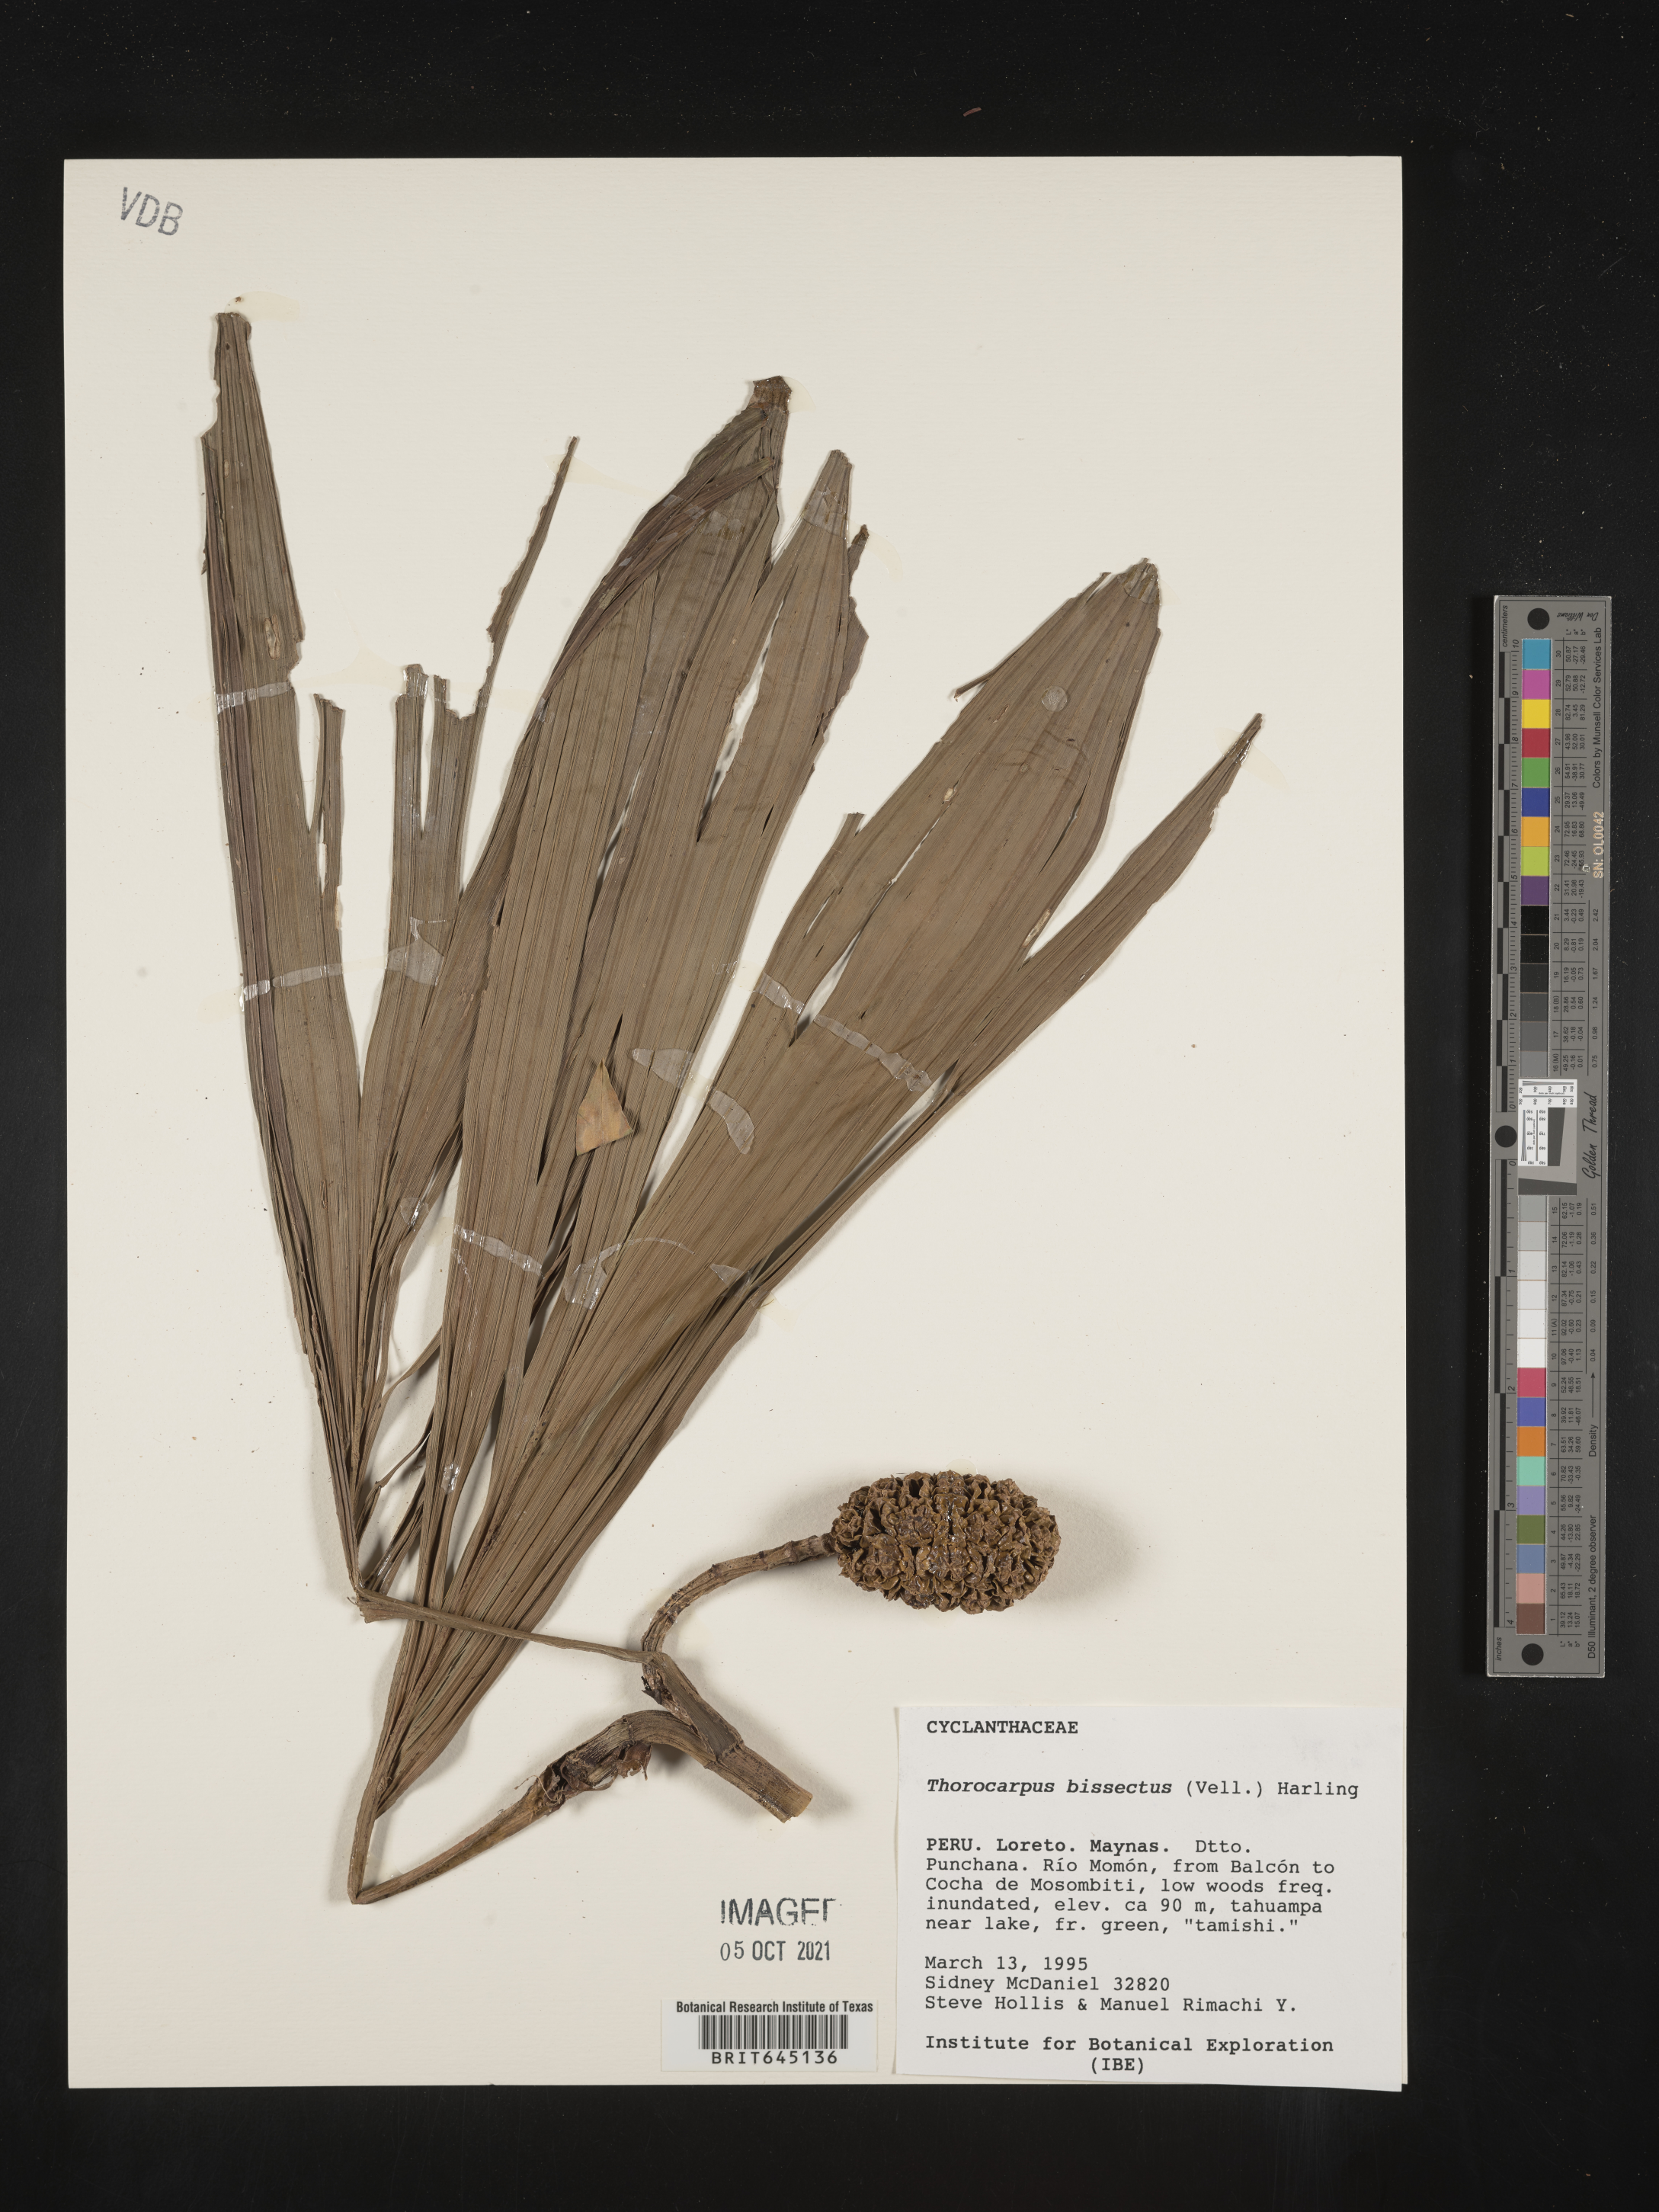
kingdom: Plantae
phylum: Tracheophyta
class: Liliopsida
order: Pandanales
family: Cyclanthaceae
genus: Thoracocarpus
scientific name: Thoracocarpus bissectus
